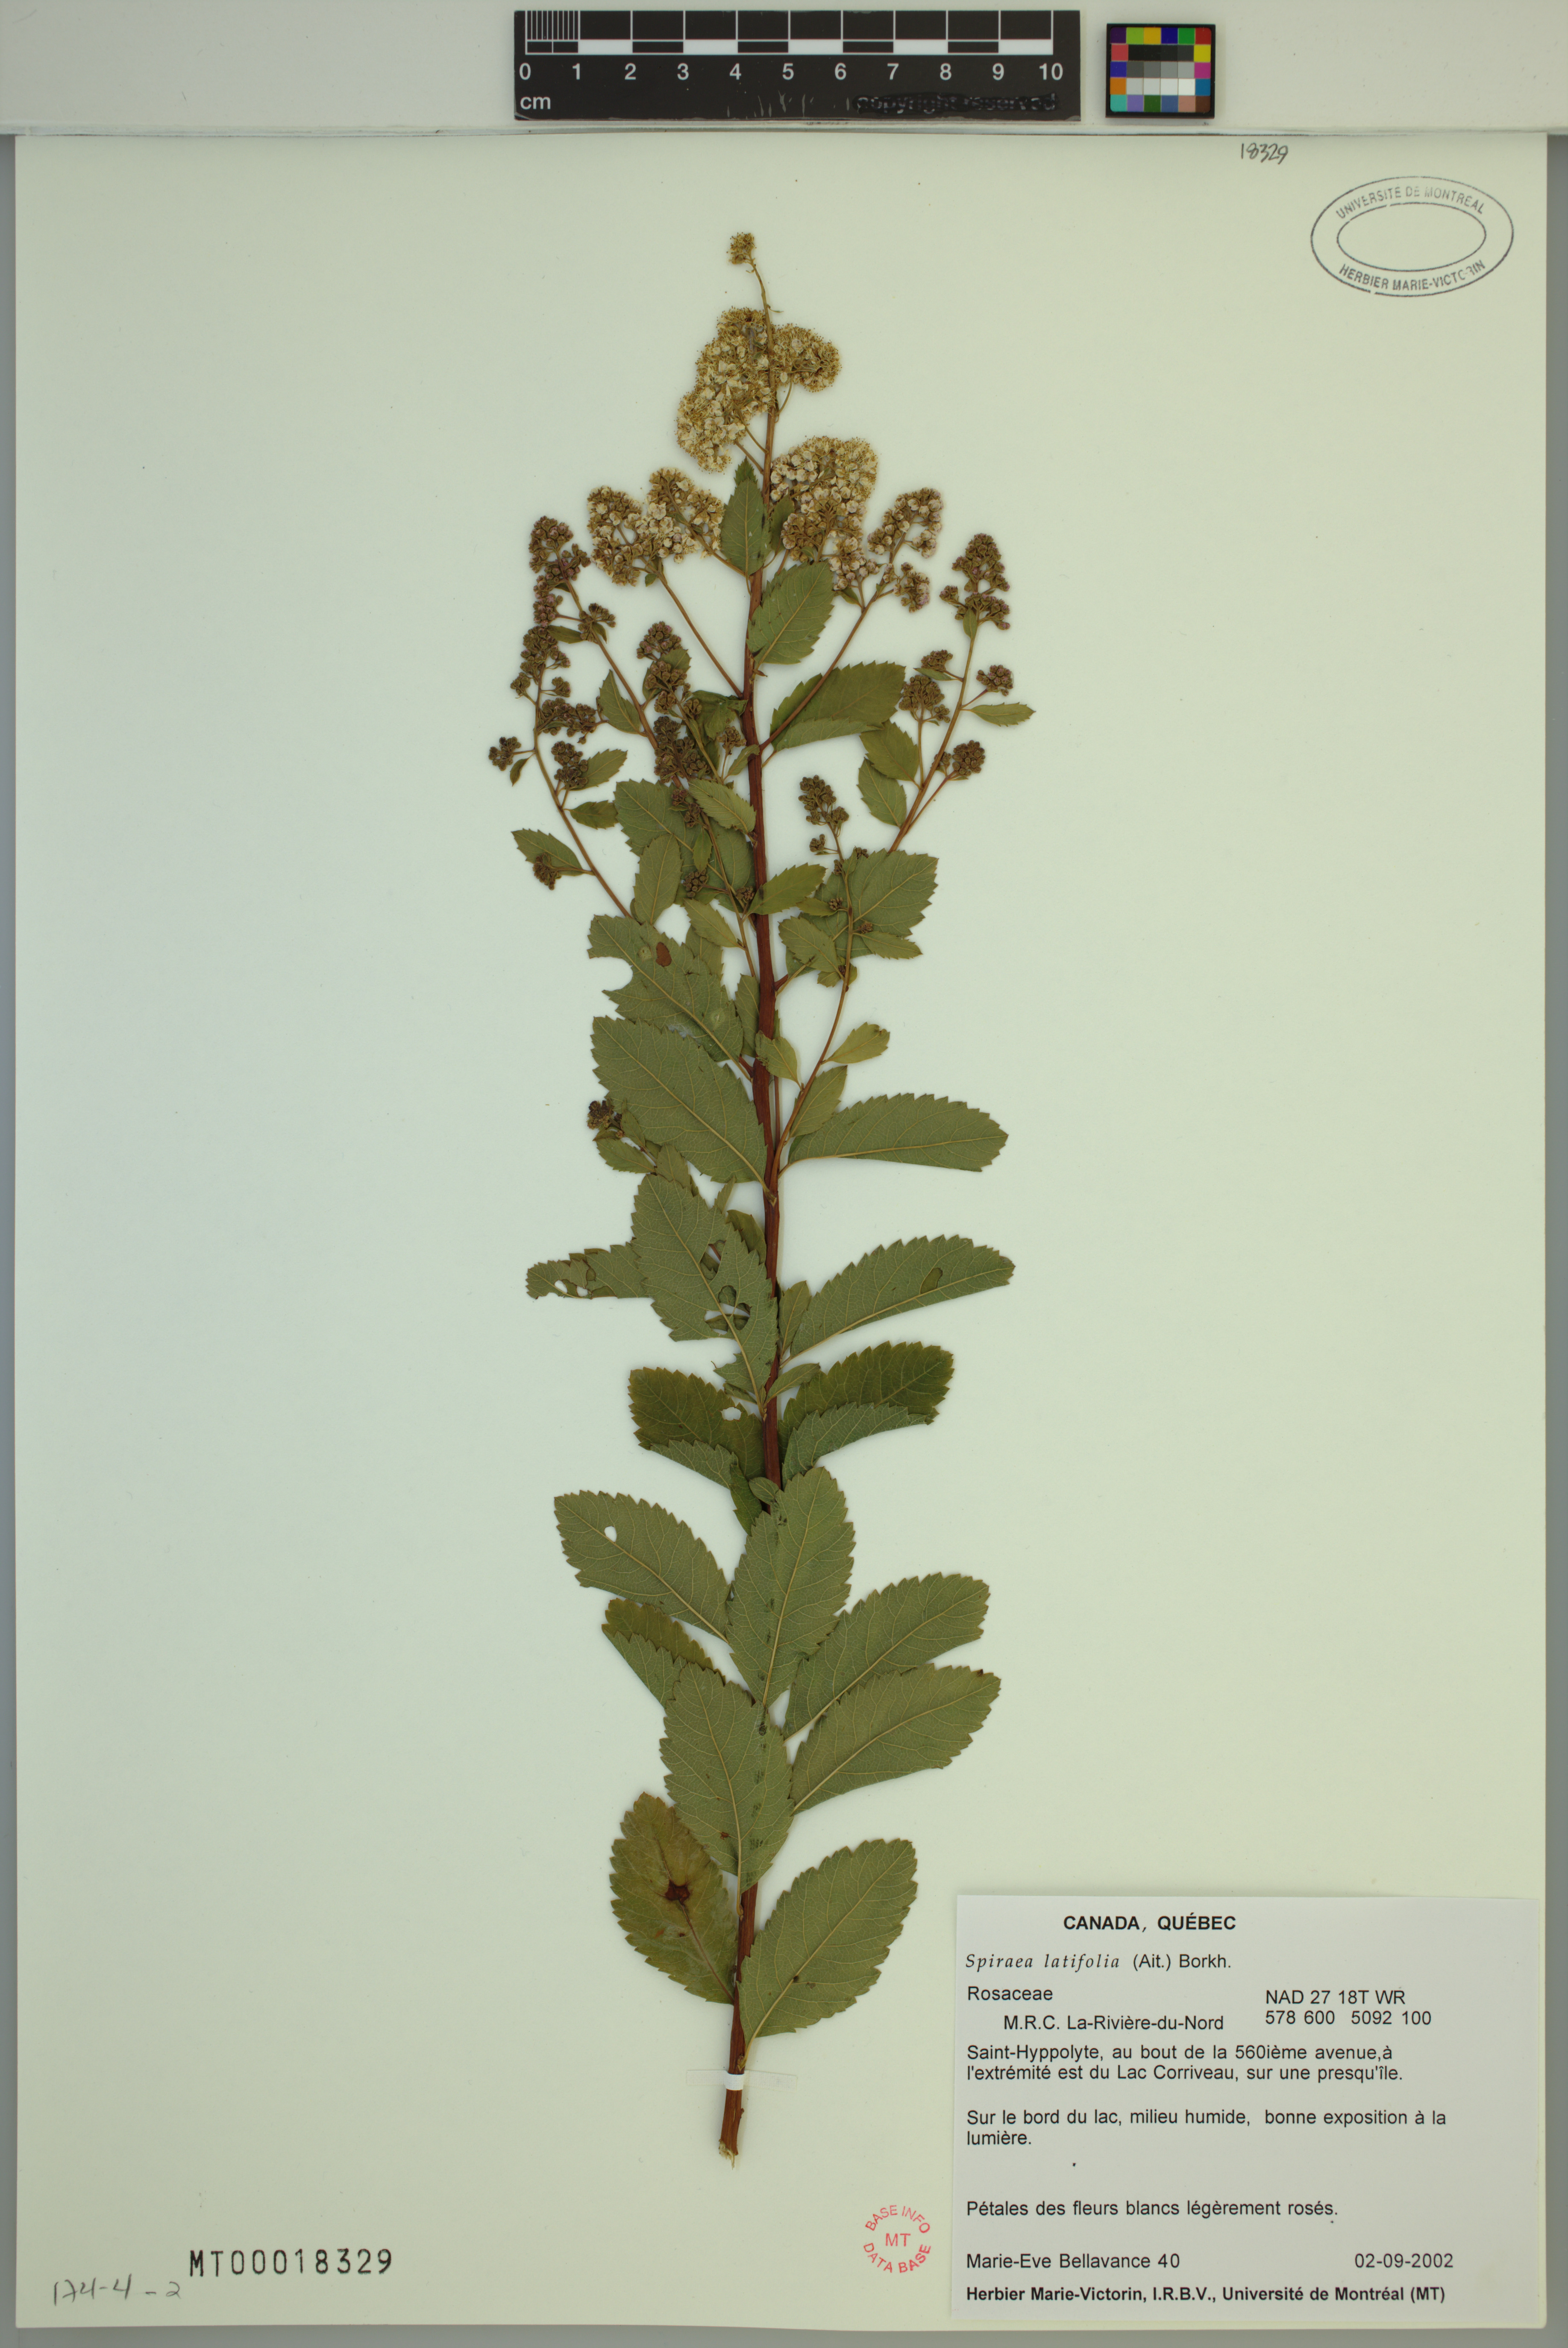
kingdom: Plantae
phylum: Tracheophyta
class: Magnoliopsida
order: Rosales
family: Rosaceae
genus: Spiraea
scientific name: Spiraea alba
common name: Pale bridewort
